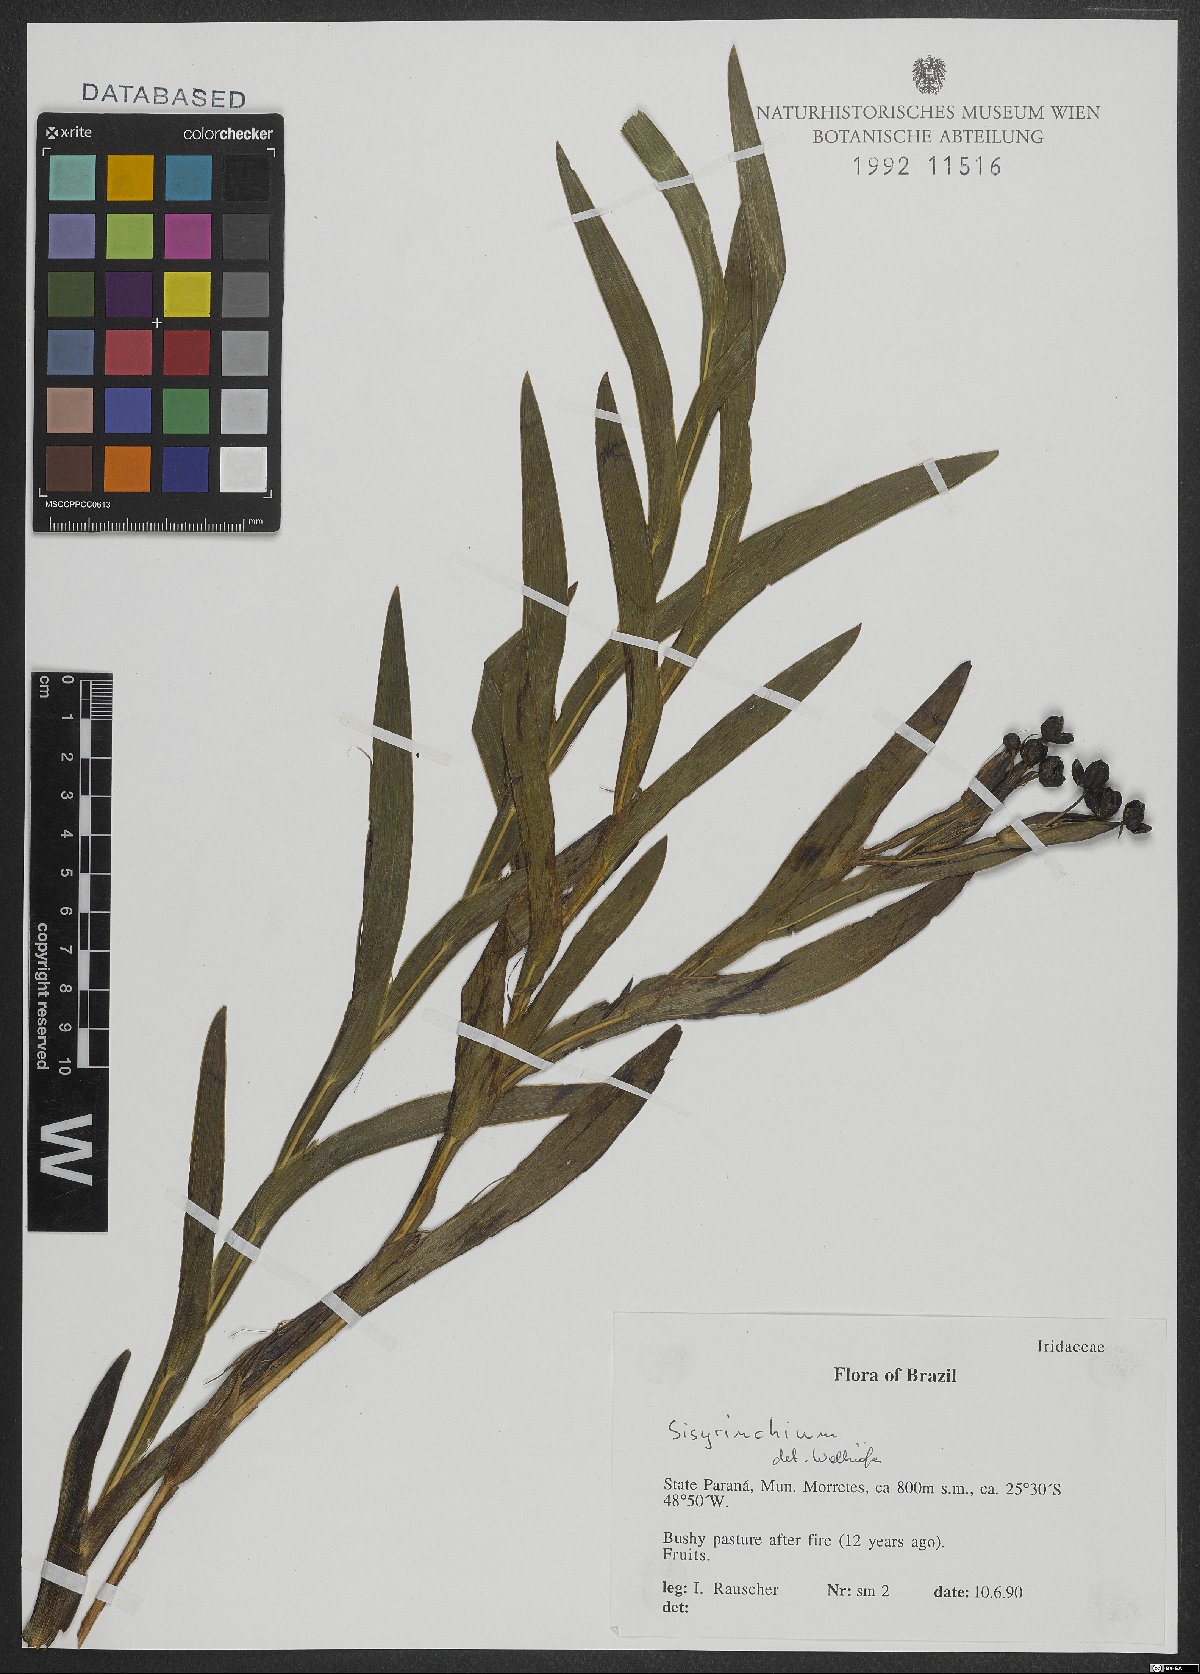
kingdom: Plantae
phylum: Tracheophyta
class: Liliopsida
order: Asparagales
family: Iridaceae
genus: Sisyrinchium
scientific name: Sisyrinchium
